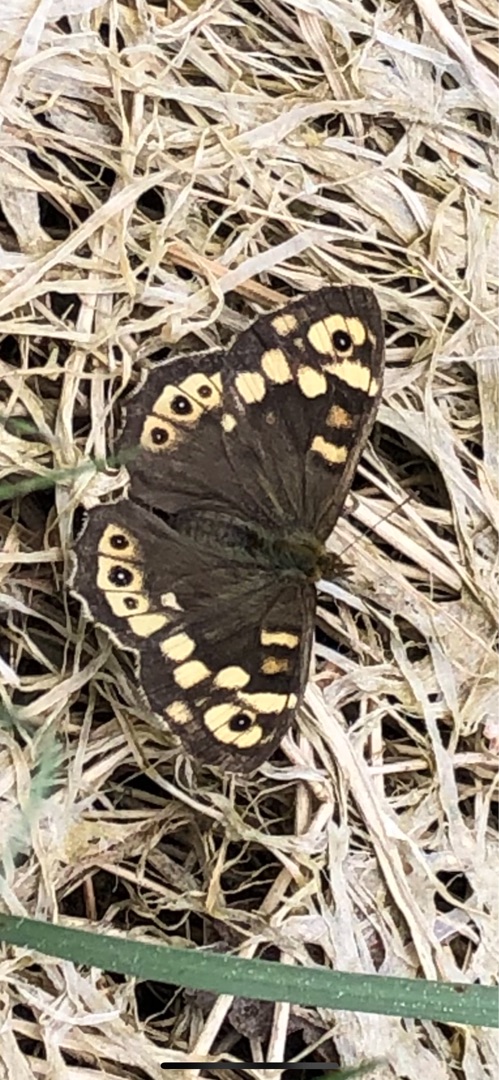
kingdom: Animalia
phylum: Arthropoda
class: Insecta
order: Lepidoptera
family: Nymphalidae
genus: Pararge
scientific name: Pararge aegeria
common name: Skovrandøje
